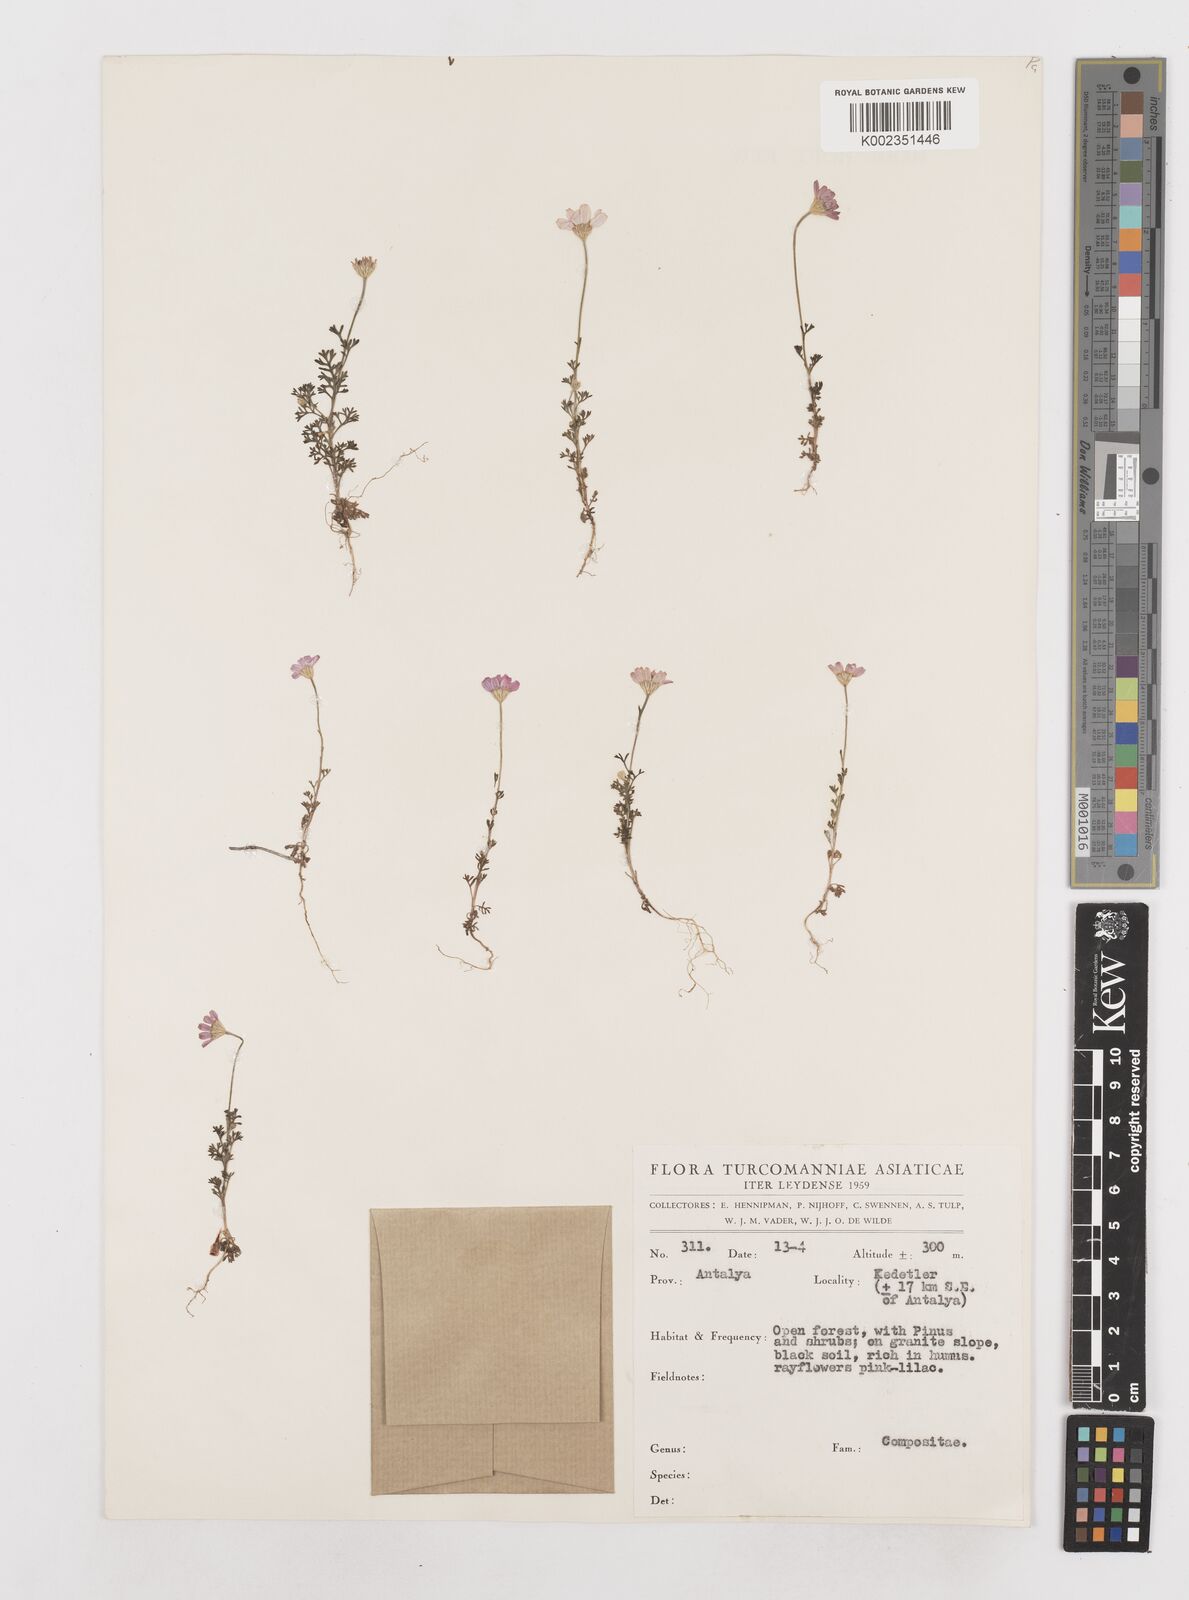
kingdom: Plantae
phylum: Tracheophyta
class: Magnoliopsida
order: Asterales
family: Asteraceae
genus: Anthemis
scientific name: Anthemis rosea
